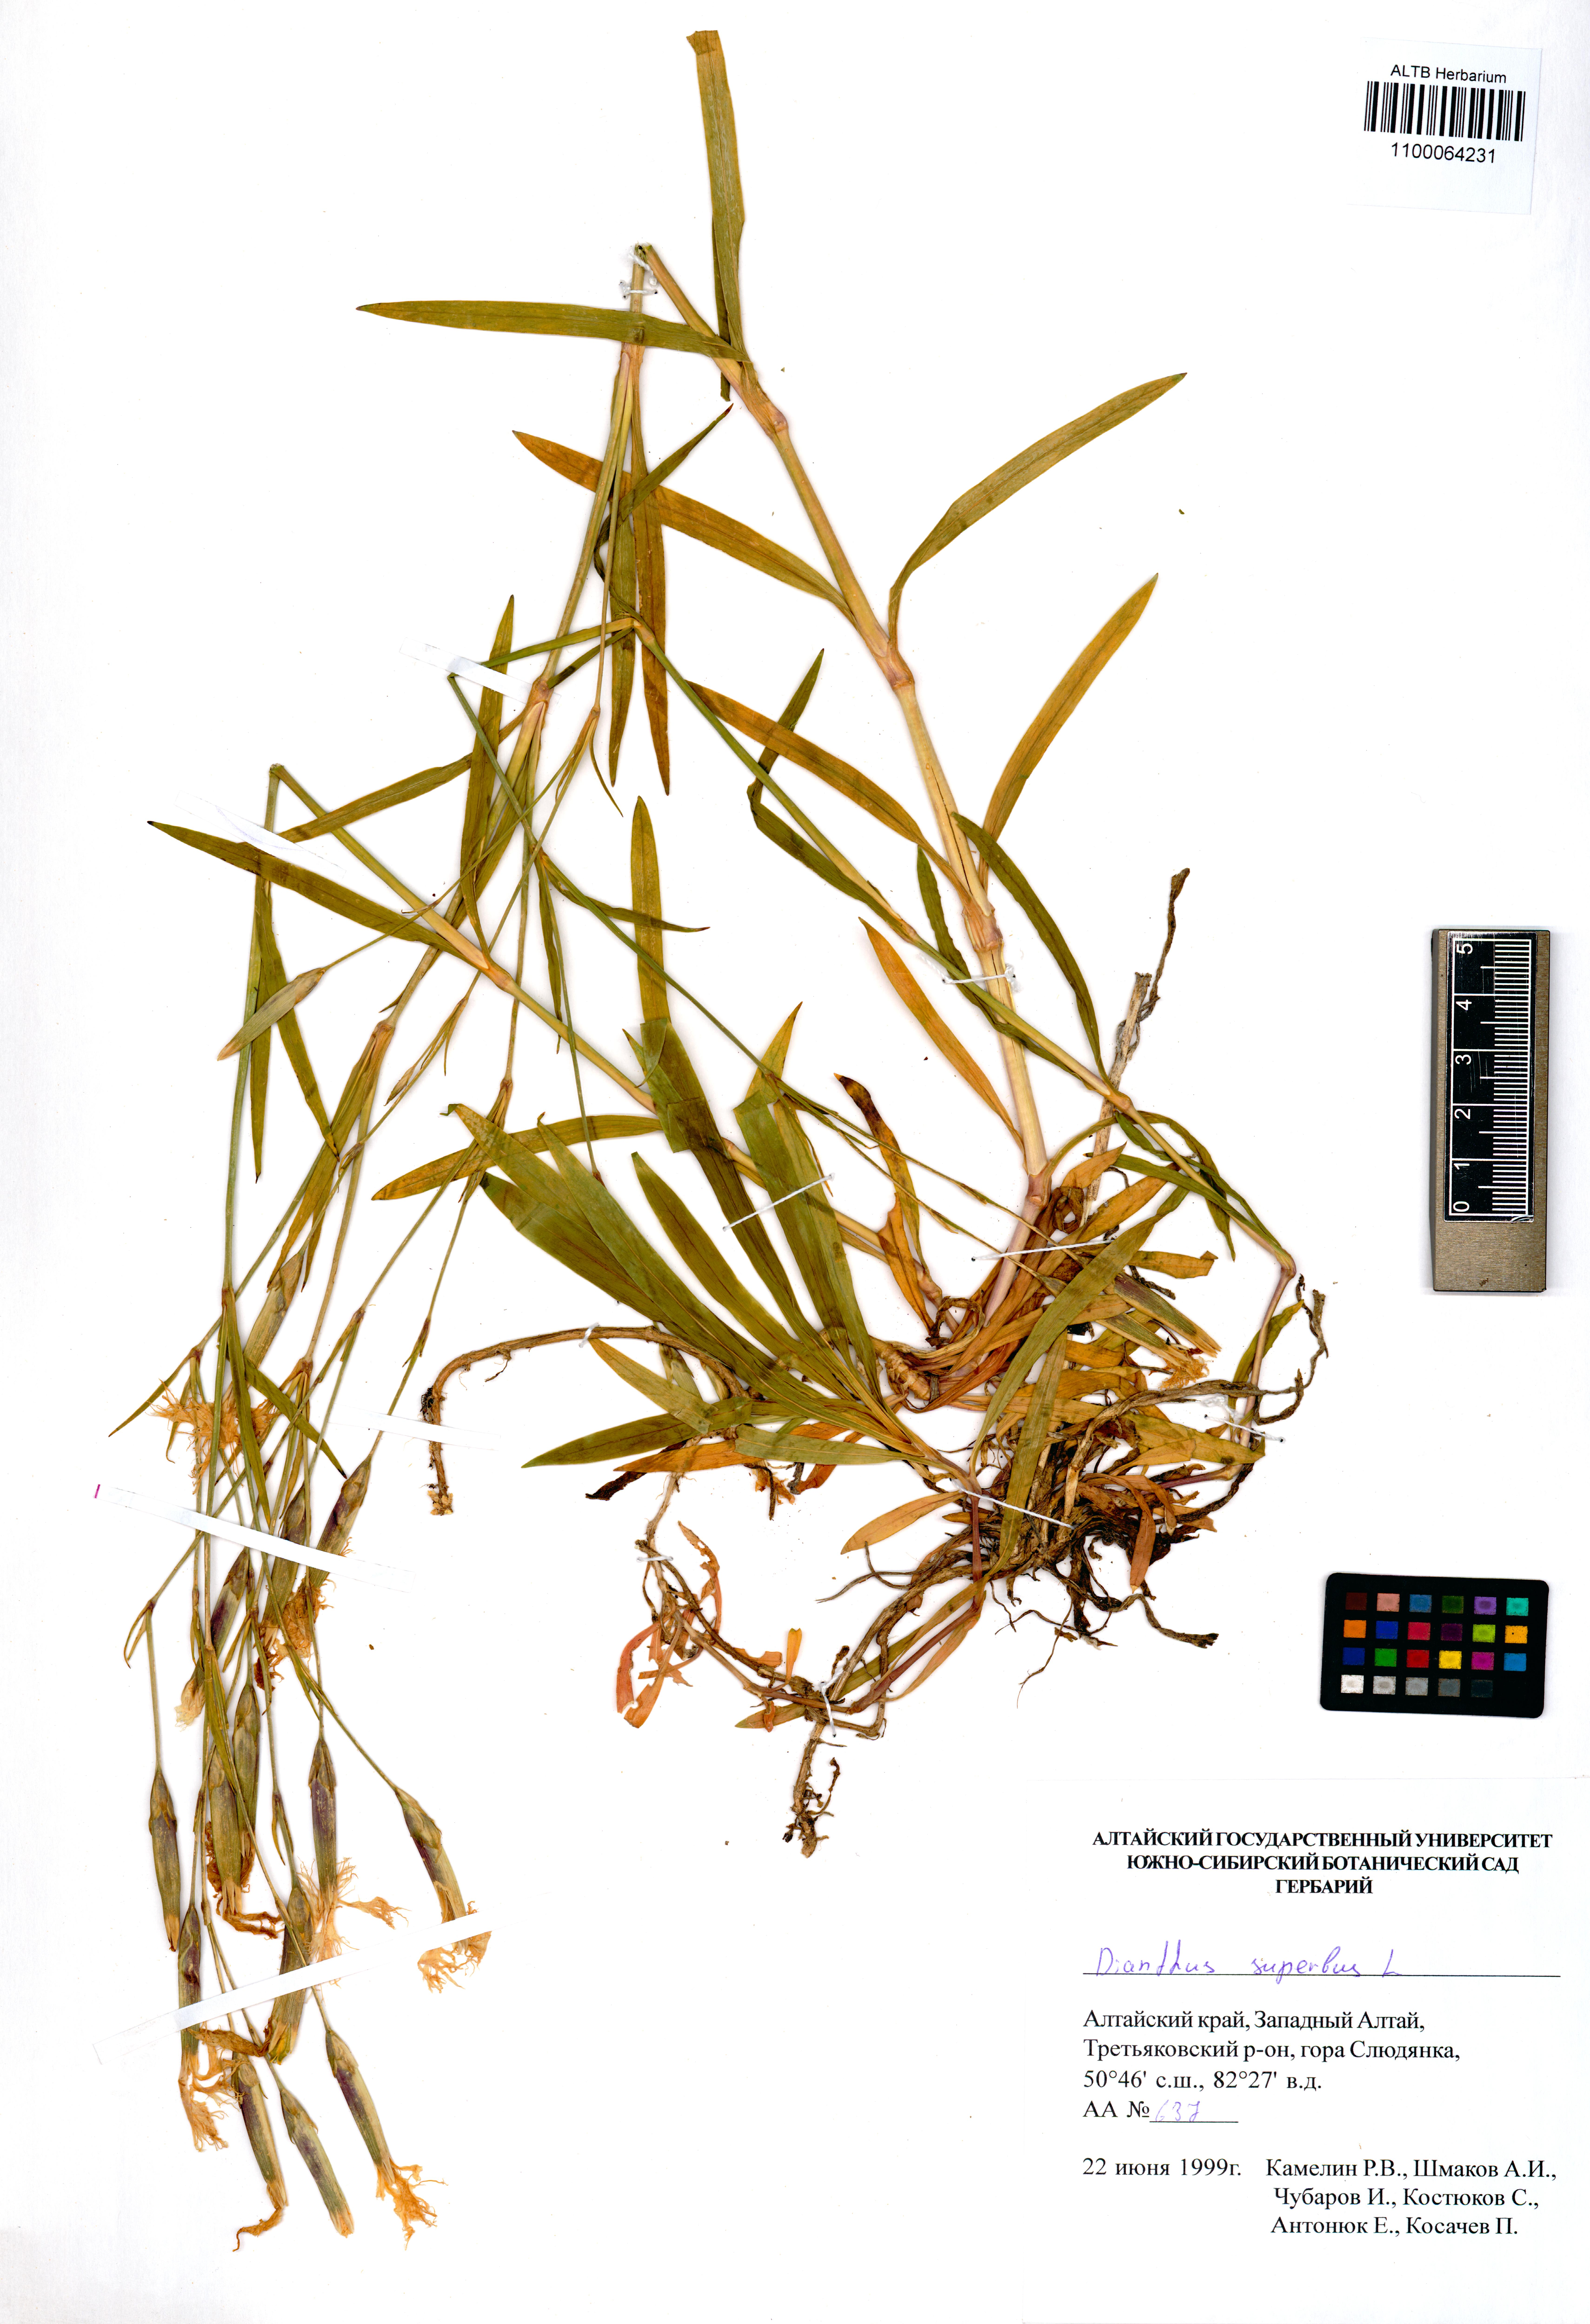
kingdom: Plantae
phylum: Tracheophyta
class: Magnoliopsida
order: Caryophyllales
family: Caryophyllaceae
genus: Dianthus
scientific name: Dianthus superbus
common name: Fringed pink
